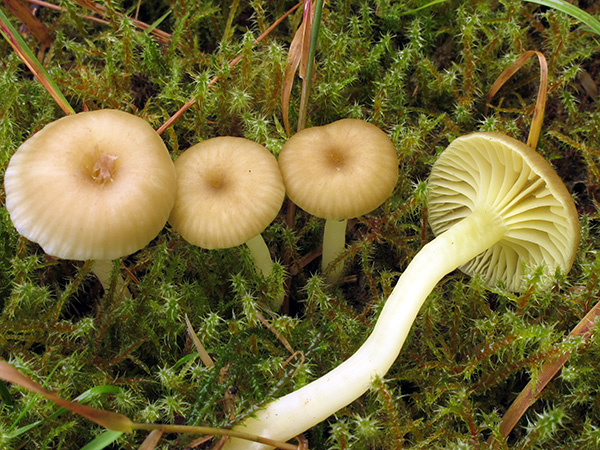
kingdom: Fungi
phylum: Basidiomycota
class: Agaricomycetes
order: Agaricales
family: Hygrophoraceae
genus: Chrysomphalina
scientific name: Chrysomphalina grossula
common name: stød-gyldenblad
